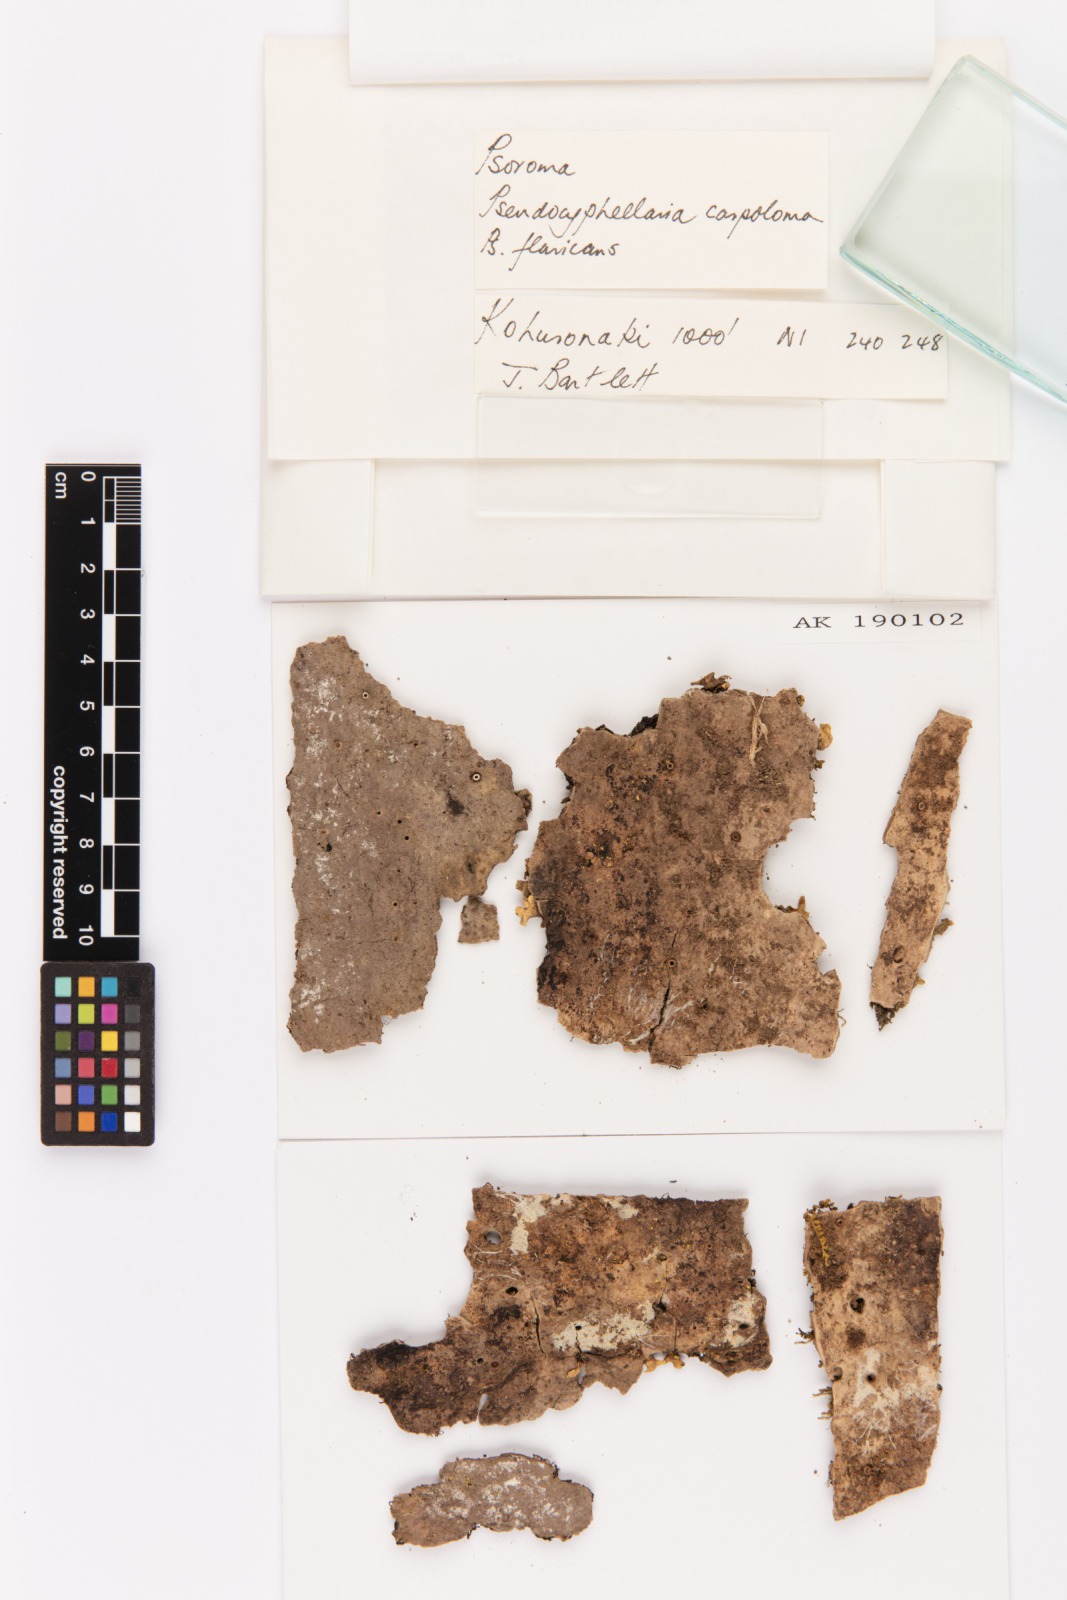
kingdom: Fungi
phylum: Ascomycota
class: Lecanoromycetes
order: Peltigerales
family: Lobariaceae
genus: Pseudocyphellaria
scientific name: Pseudocyphellaria carpoloma
